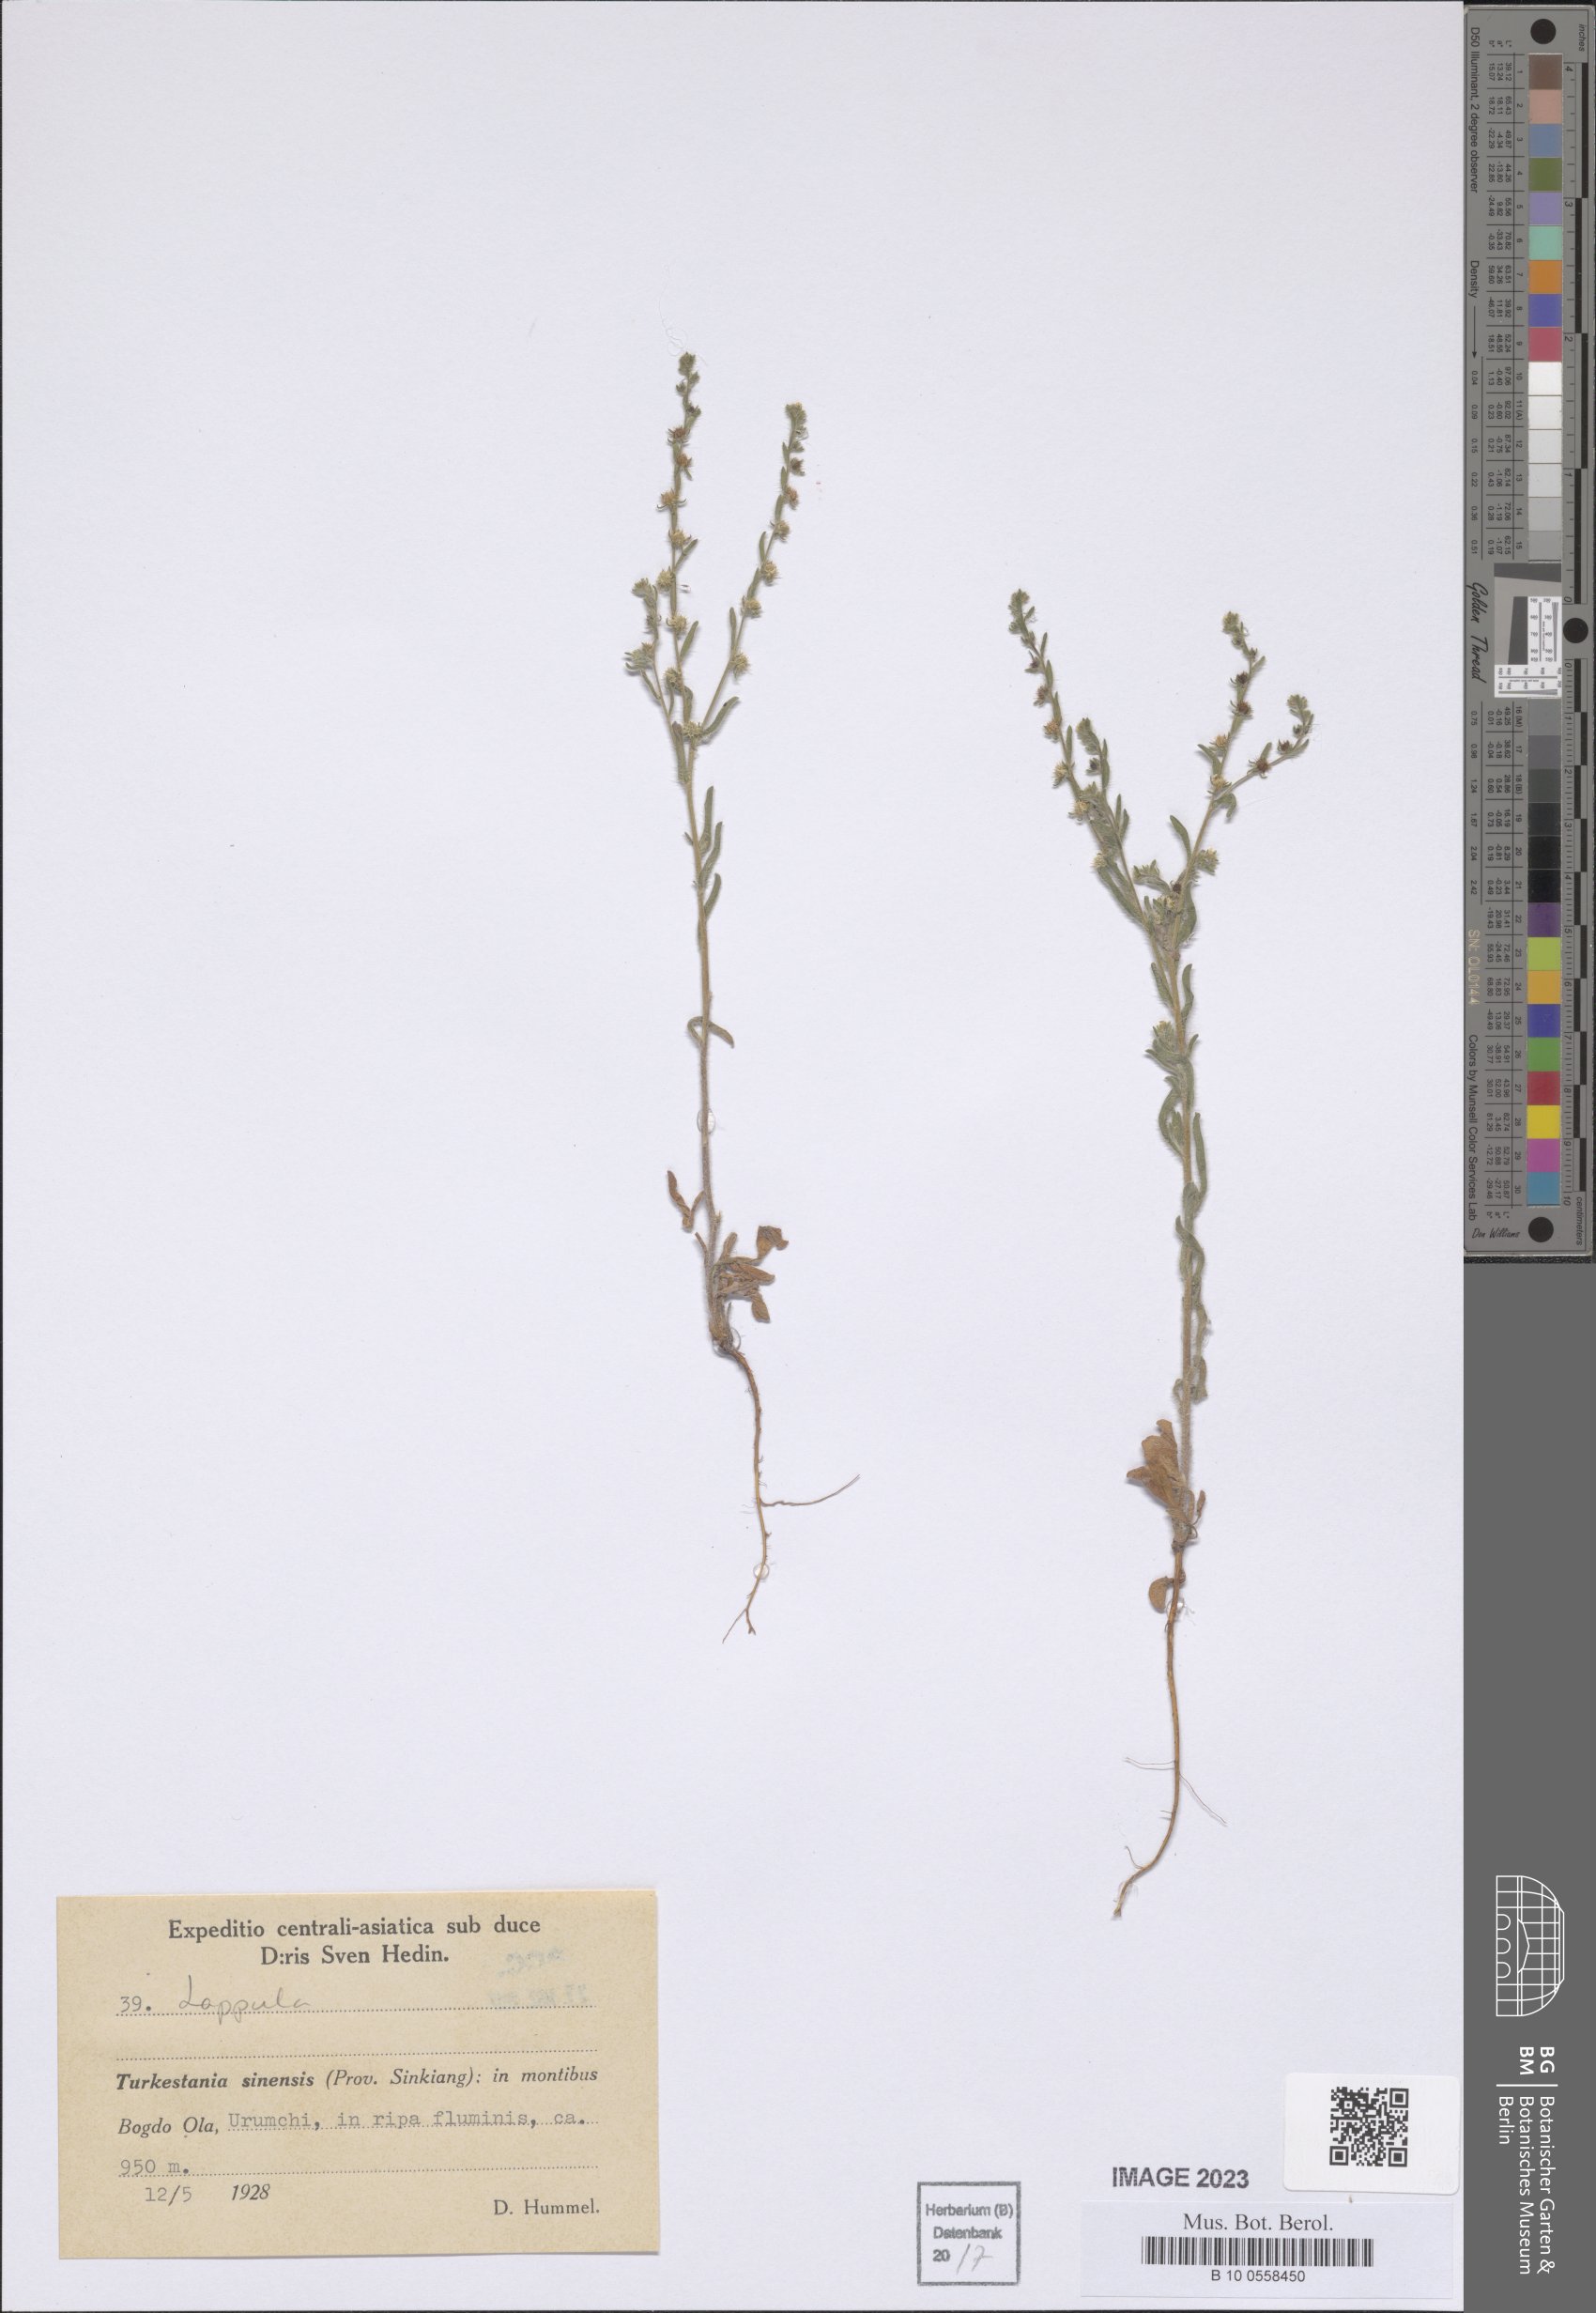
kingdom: Plantae
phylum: Tracheophyta
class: Magnoliopsida
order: Boraginales
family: Boraginaceae
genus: Lappula
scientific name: Lappula
